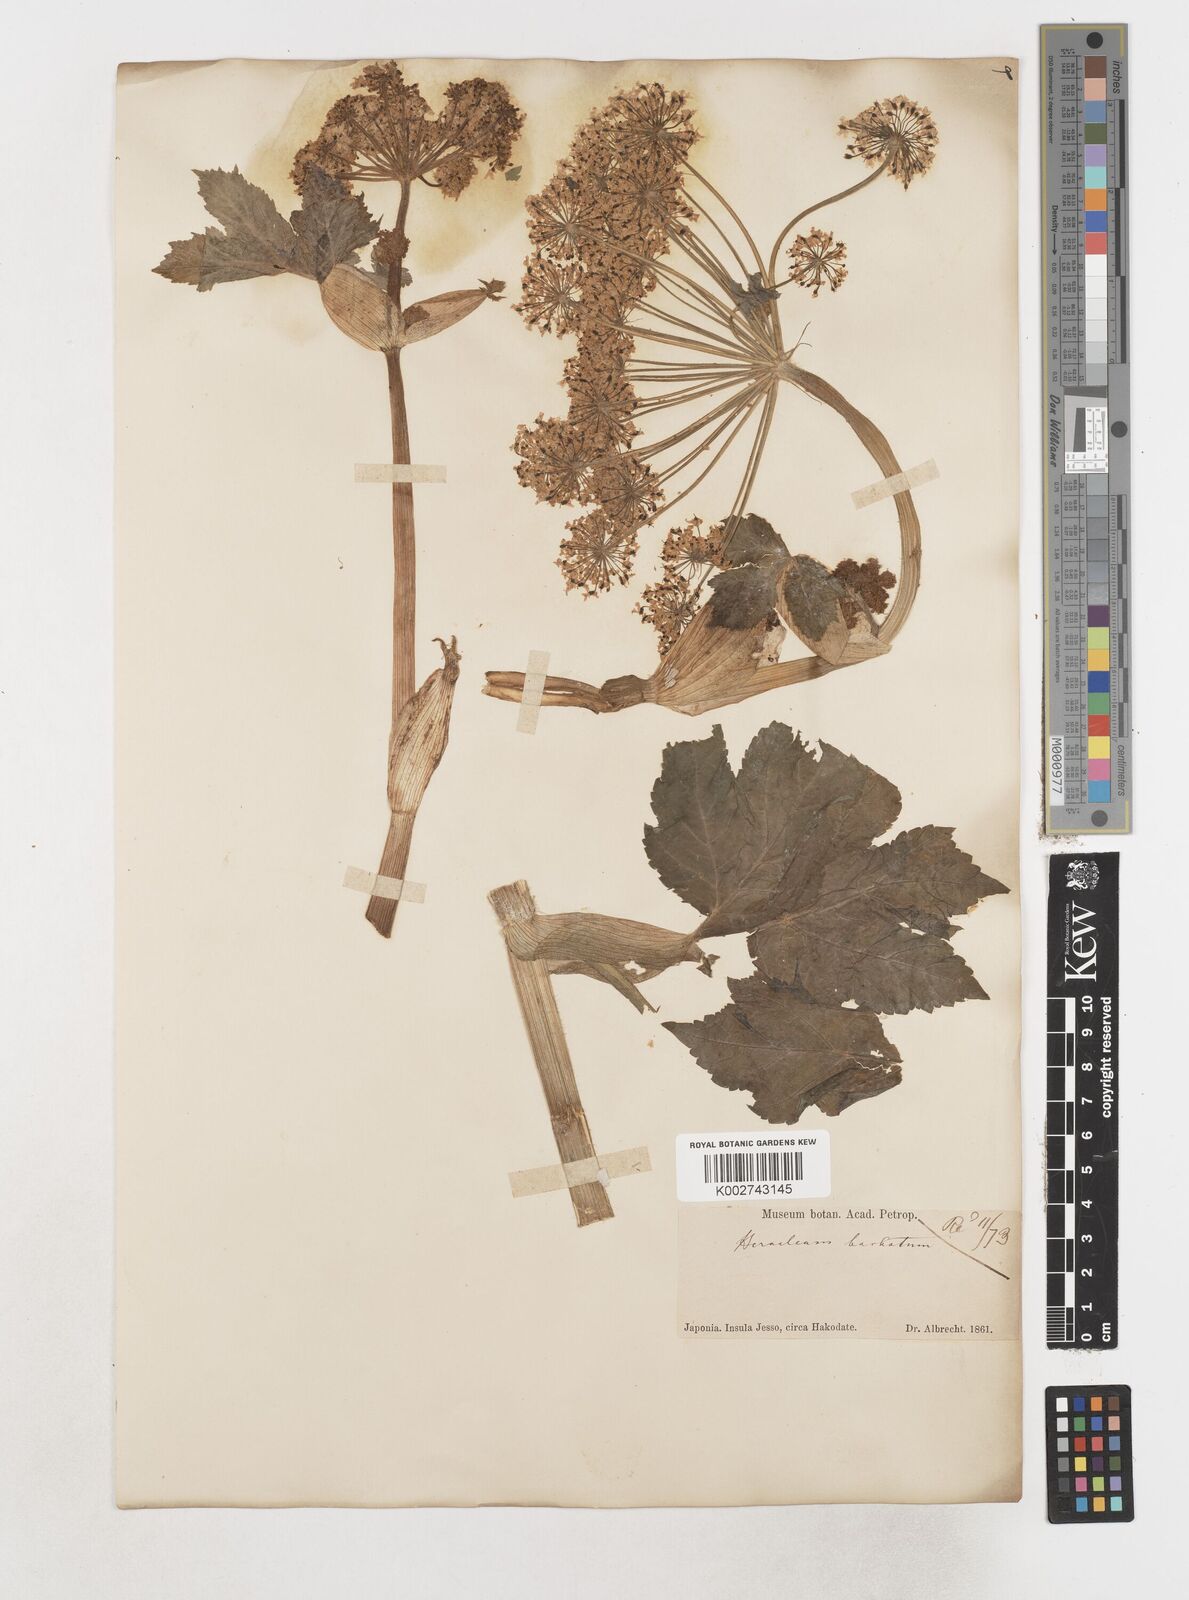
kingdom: Plantae
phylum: Tracheophyta
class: Magnoliopsida
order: Apiales
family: Apiaceae
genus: Heracleum
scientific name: Heracleum dissectum
